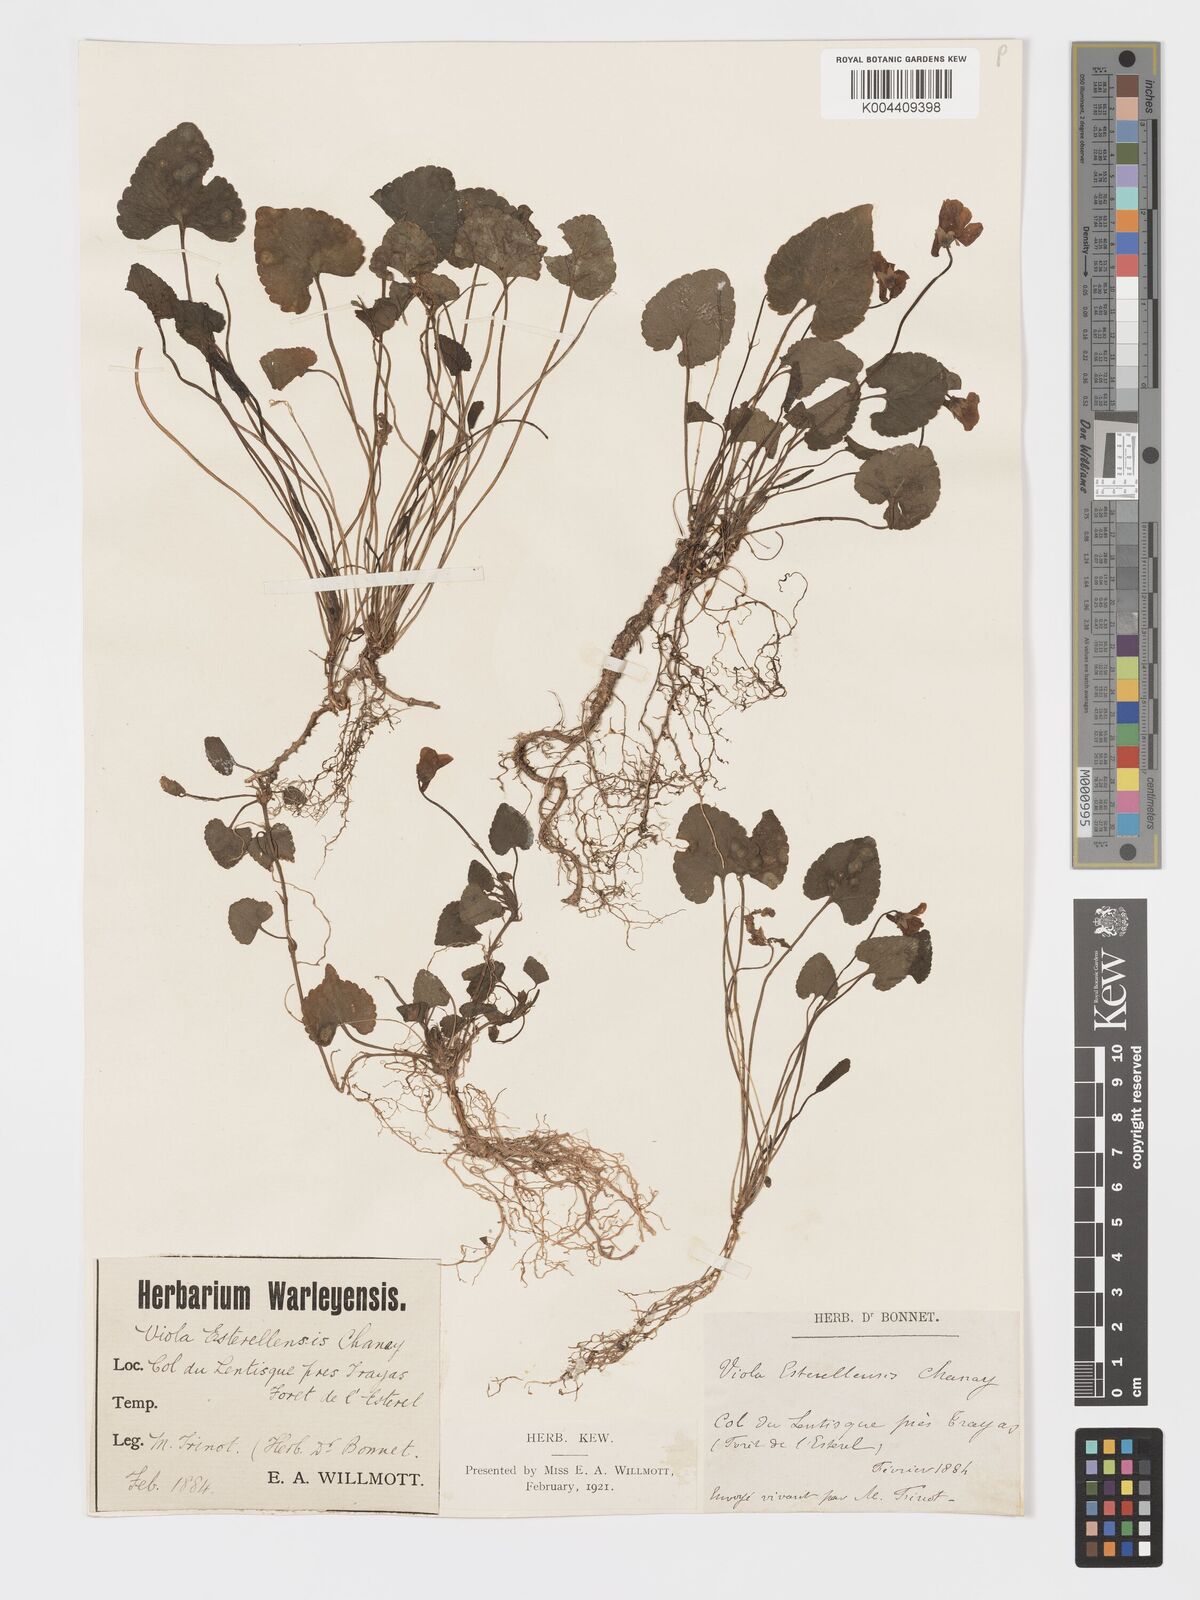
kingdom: Plantae
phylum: Tracheophyta
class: Magnoliopsida
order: Malpighiales
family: Violaceae
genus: Viola
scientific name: Viola alba
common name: White violet
